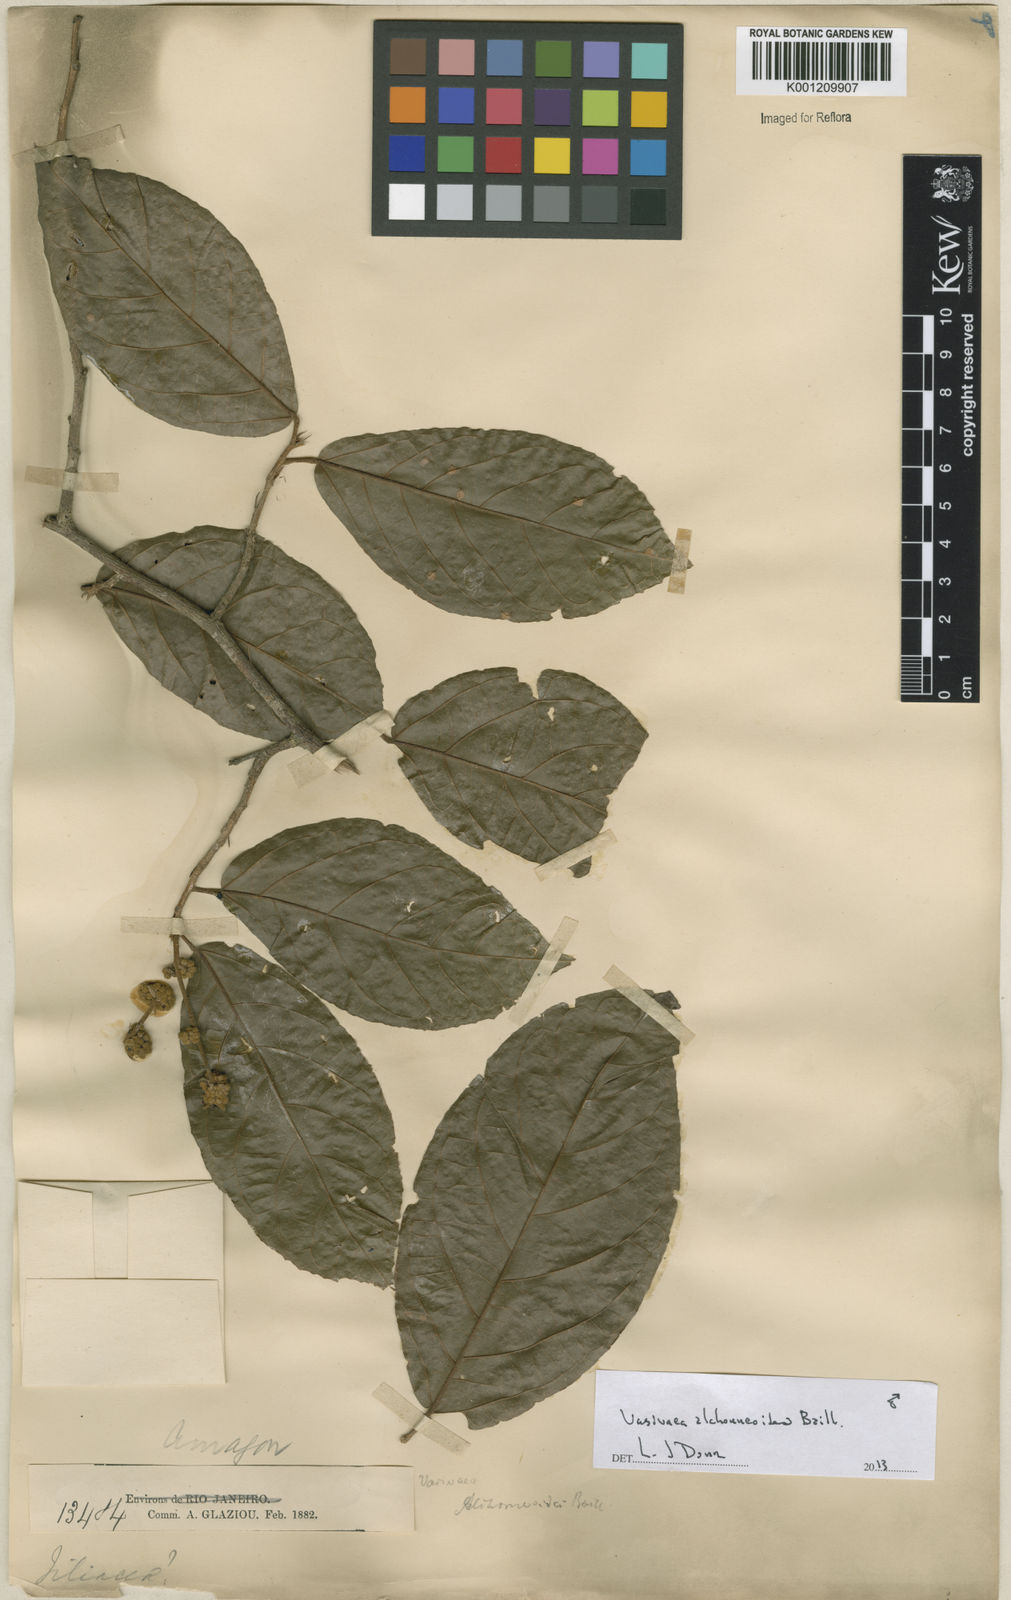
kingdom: Plantae
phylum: Tracheophyta
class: Magnoliopsida
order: Malvales
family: Malvaceae
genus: Vasivaea
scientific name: Vasivaea alchorneoides
